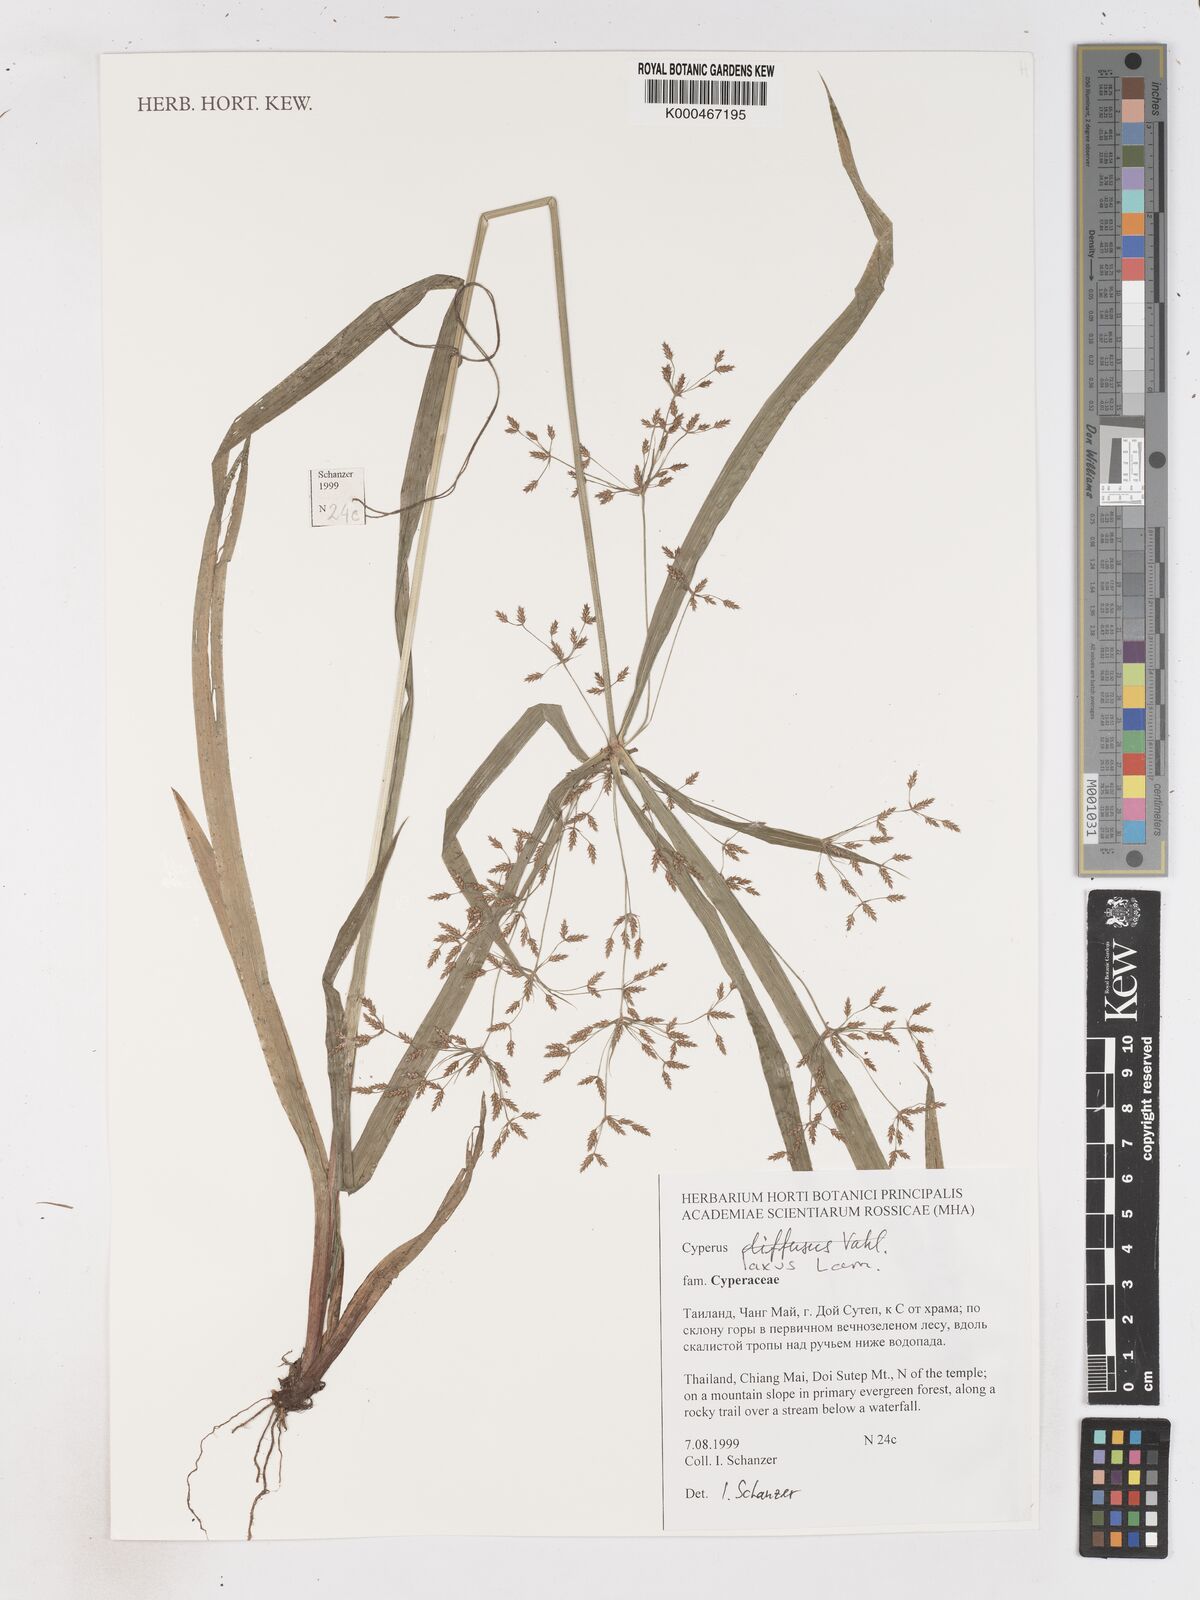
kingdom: Plantae
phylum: Tracheophyta
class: Liliopsida
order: Poales
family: Cyperaceae
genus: Cyperus
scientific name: Cyperus diffusus
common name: Dwarf umbrella grass
